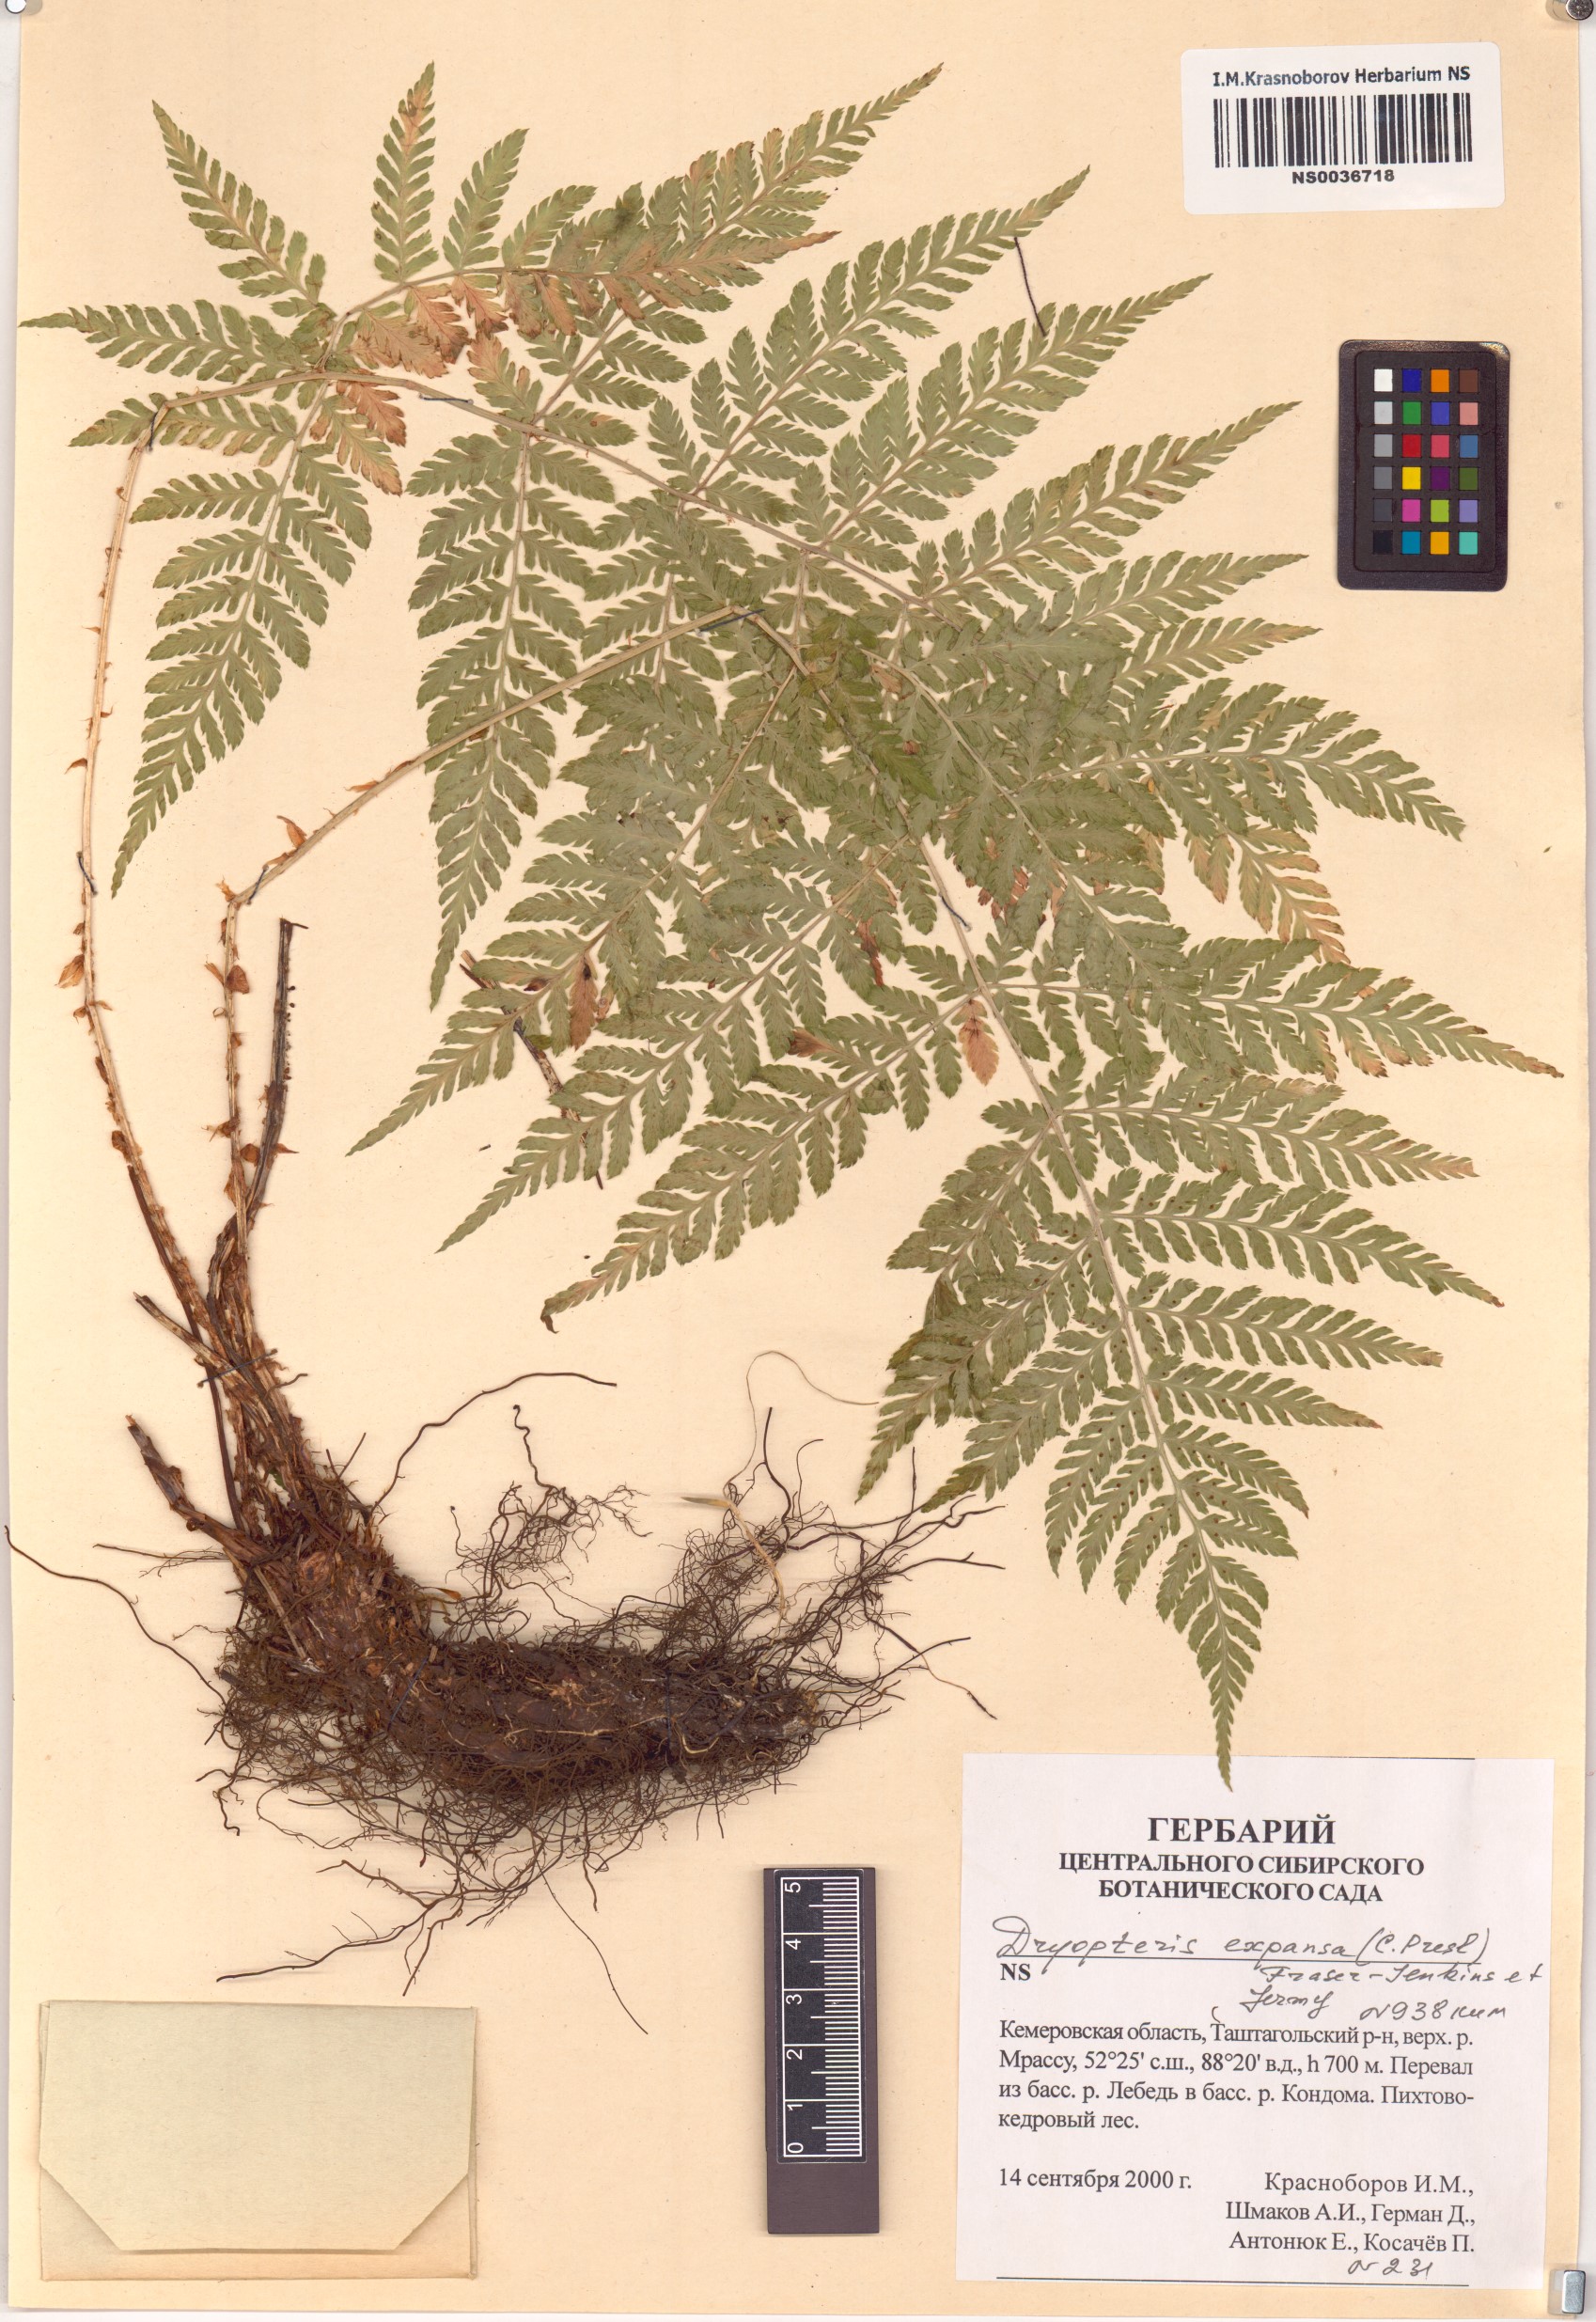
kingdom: Plantae
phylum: Tracheophyta
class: Polypodiopsida
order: Polypodiales
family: Dryopteridaceae
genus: Dryopteris
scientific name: Dryopteris expansa
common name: Northern buckler fern
